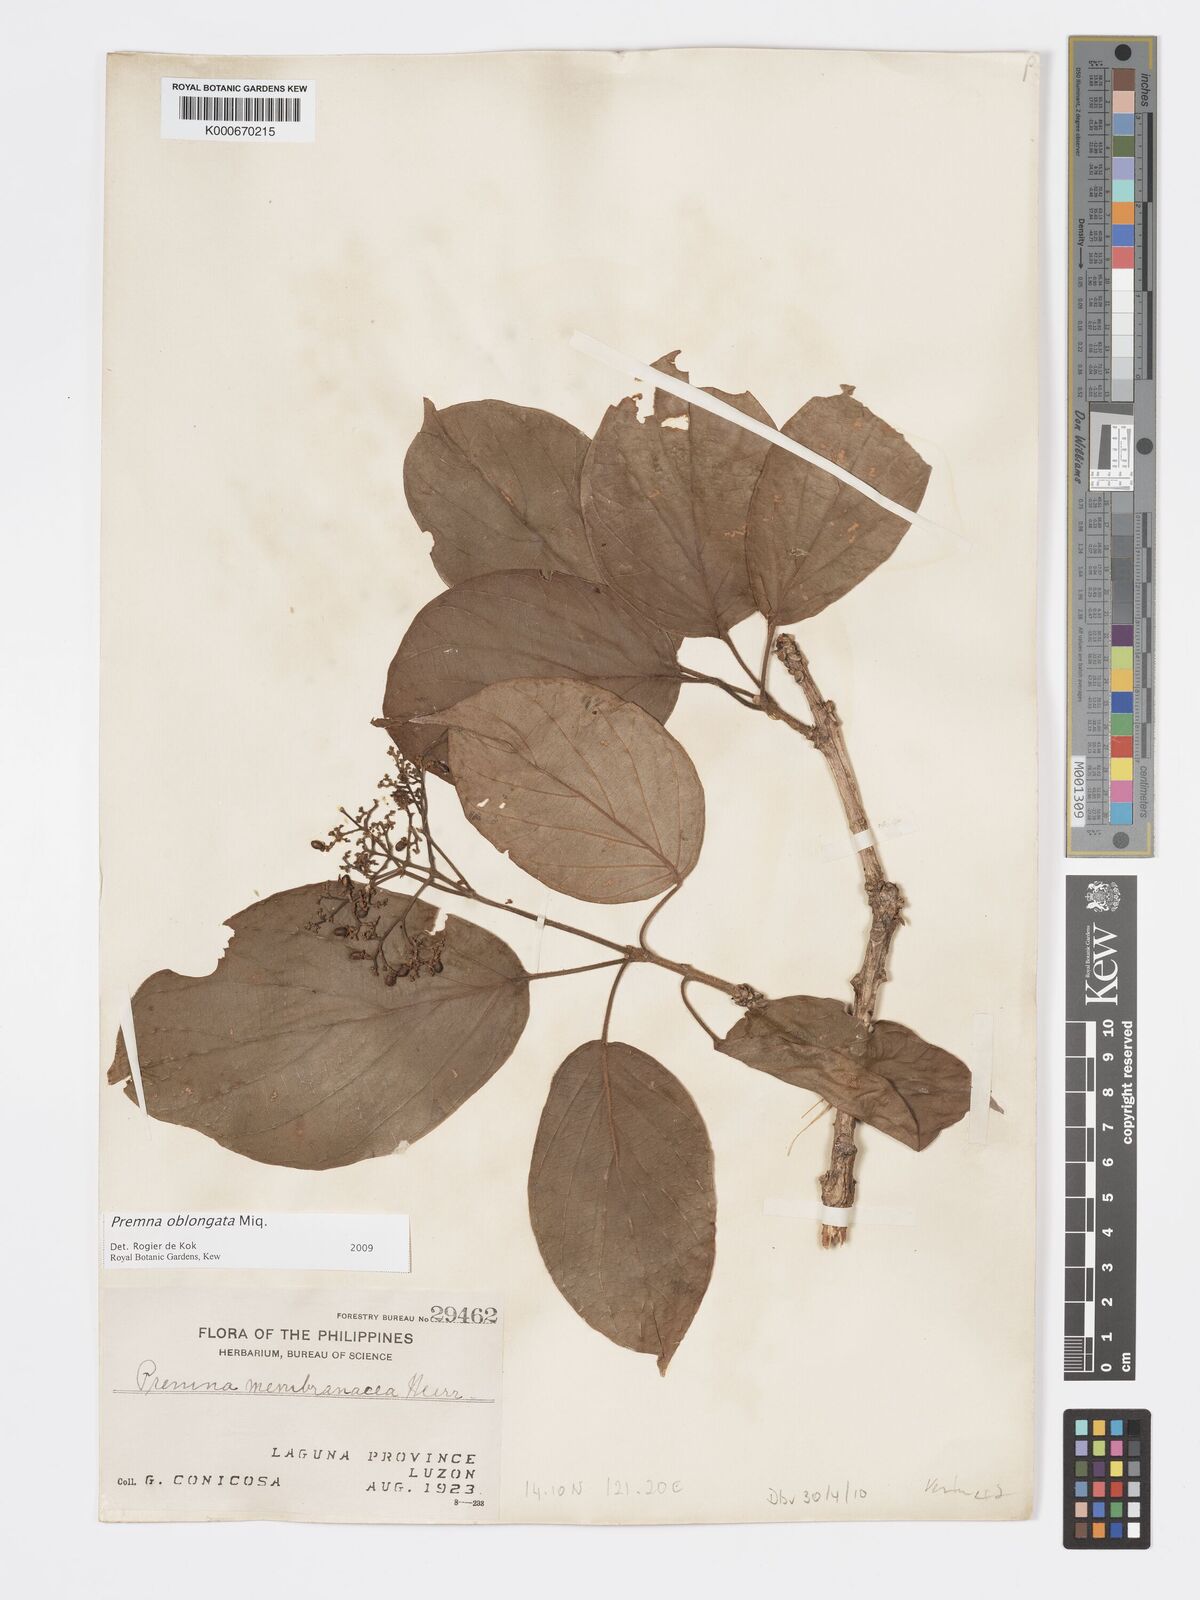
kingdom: Plantae
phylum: Tracheophyta
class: Magnoliopsida
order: Lamiales
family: Lamiaceae
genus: Premna
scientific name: Premna oblongata
